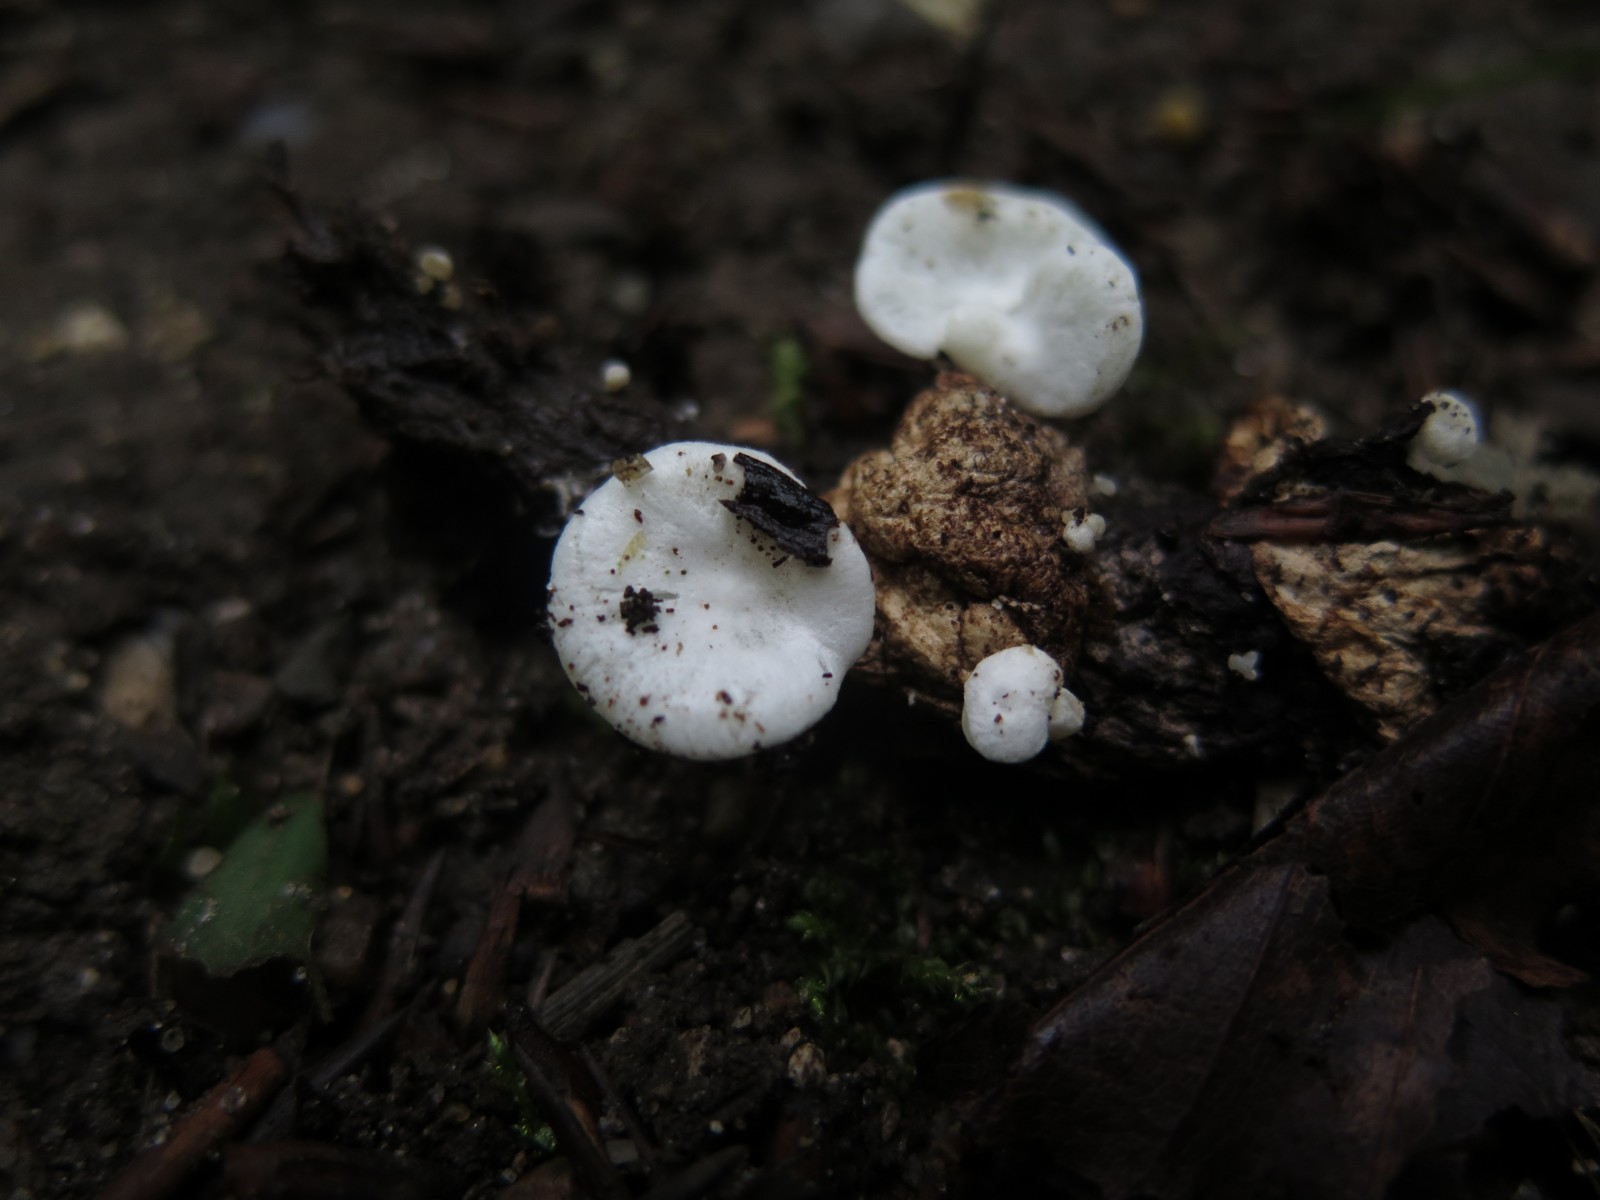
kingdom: Fungi
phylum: Basidiomycota
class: Agaricomycetes
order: Agaricales
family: Entolomataceae
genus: Clitopilus
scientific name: Clitopilus hobsonii
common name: Miller's oysterling
